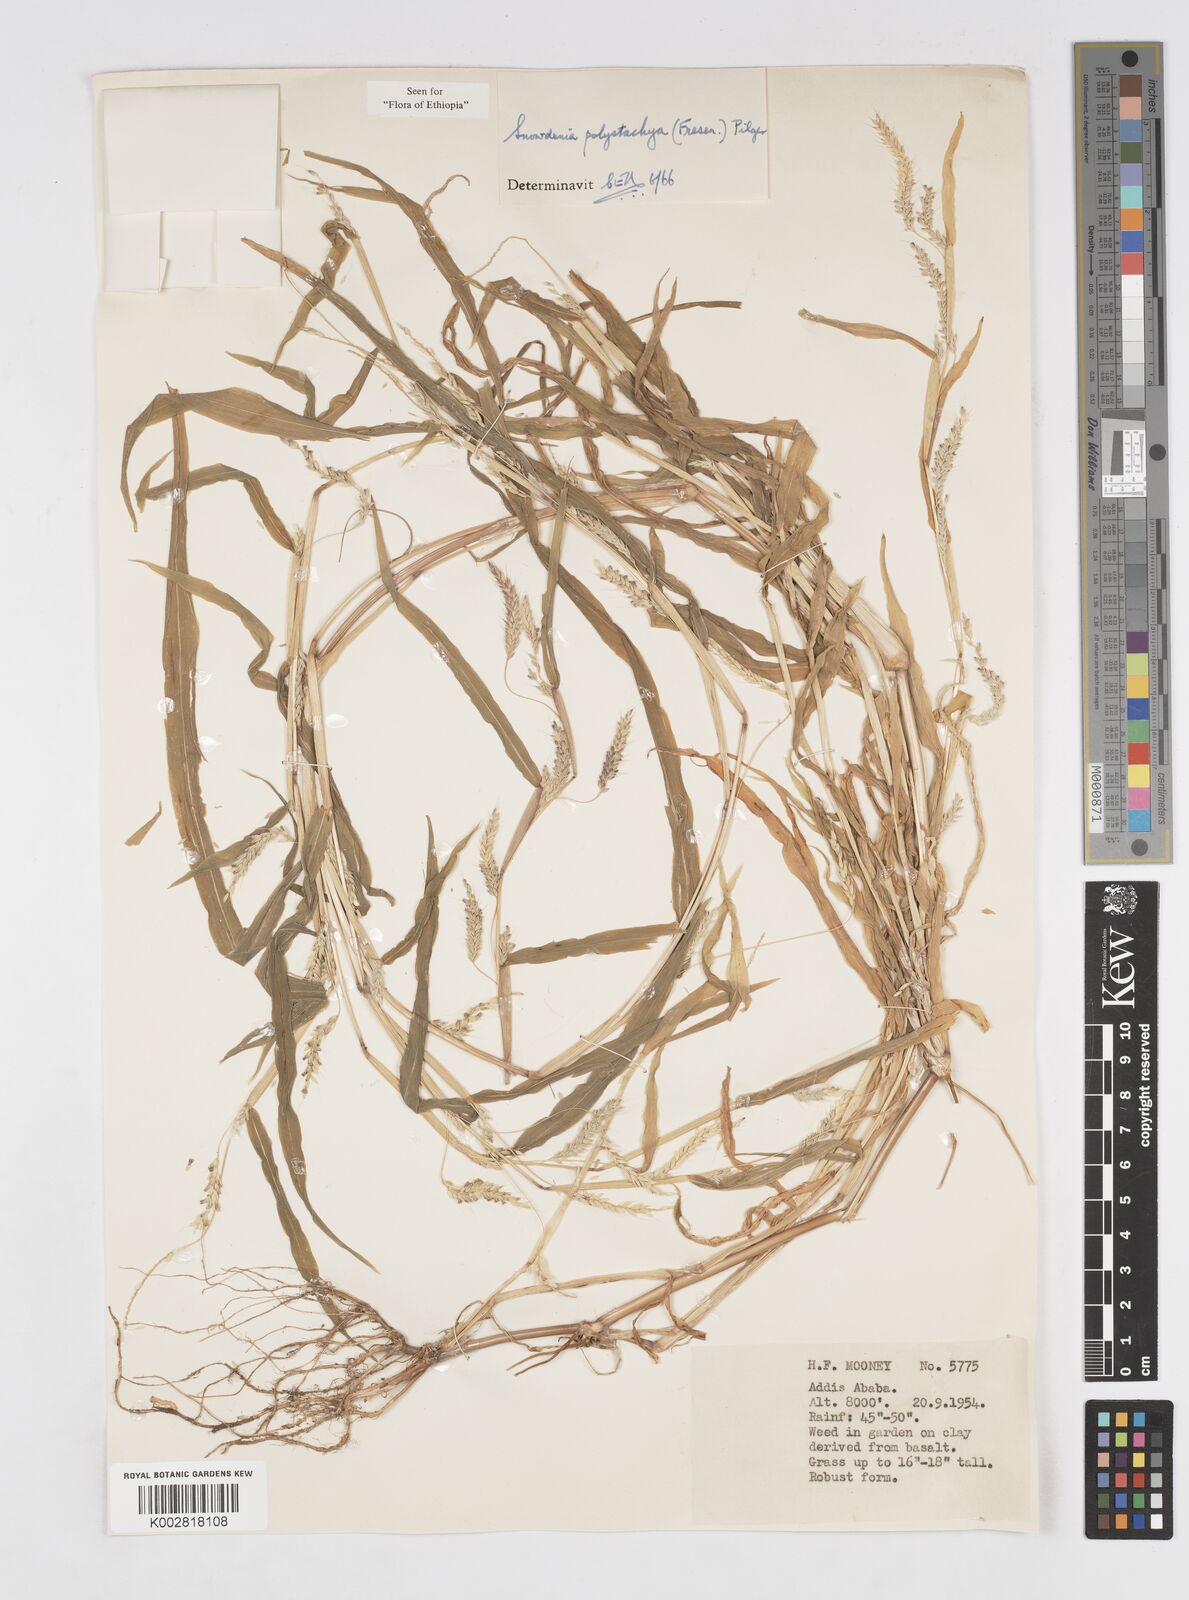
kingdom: Plantae
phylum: Tracheophyta
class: Liliopsida
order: Poales
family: Poaceae
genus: Snowdenia
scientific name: Snowdenia polystachya
